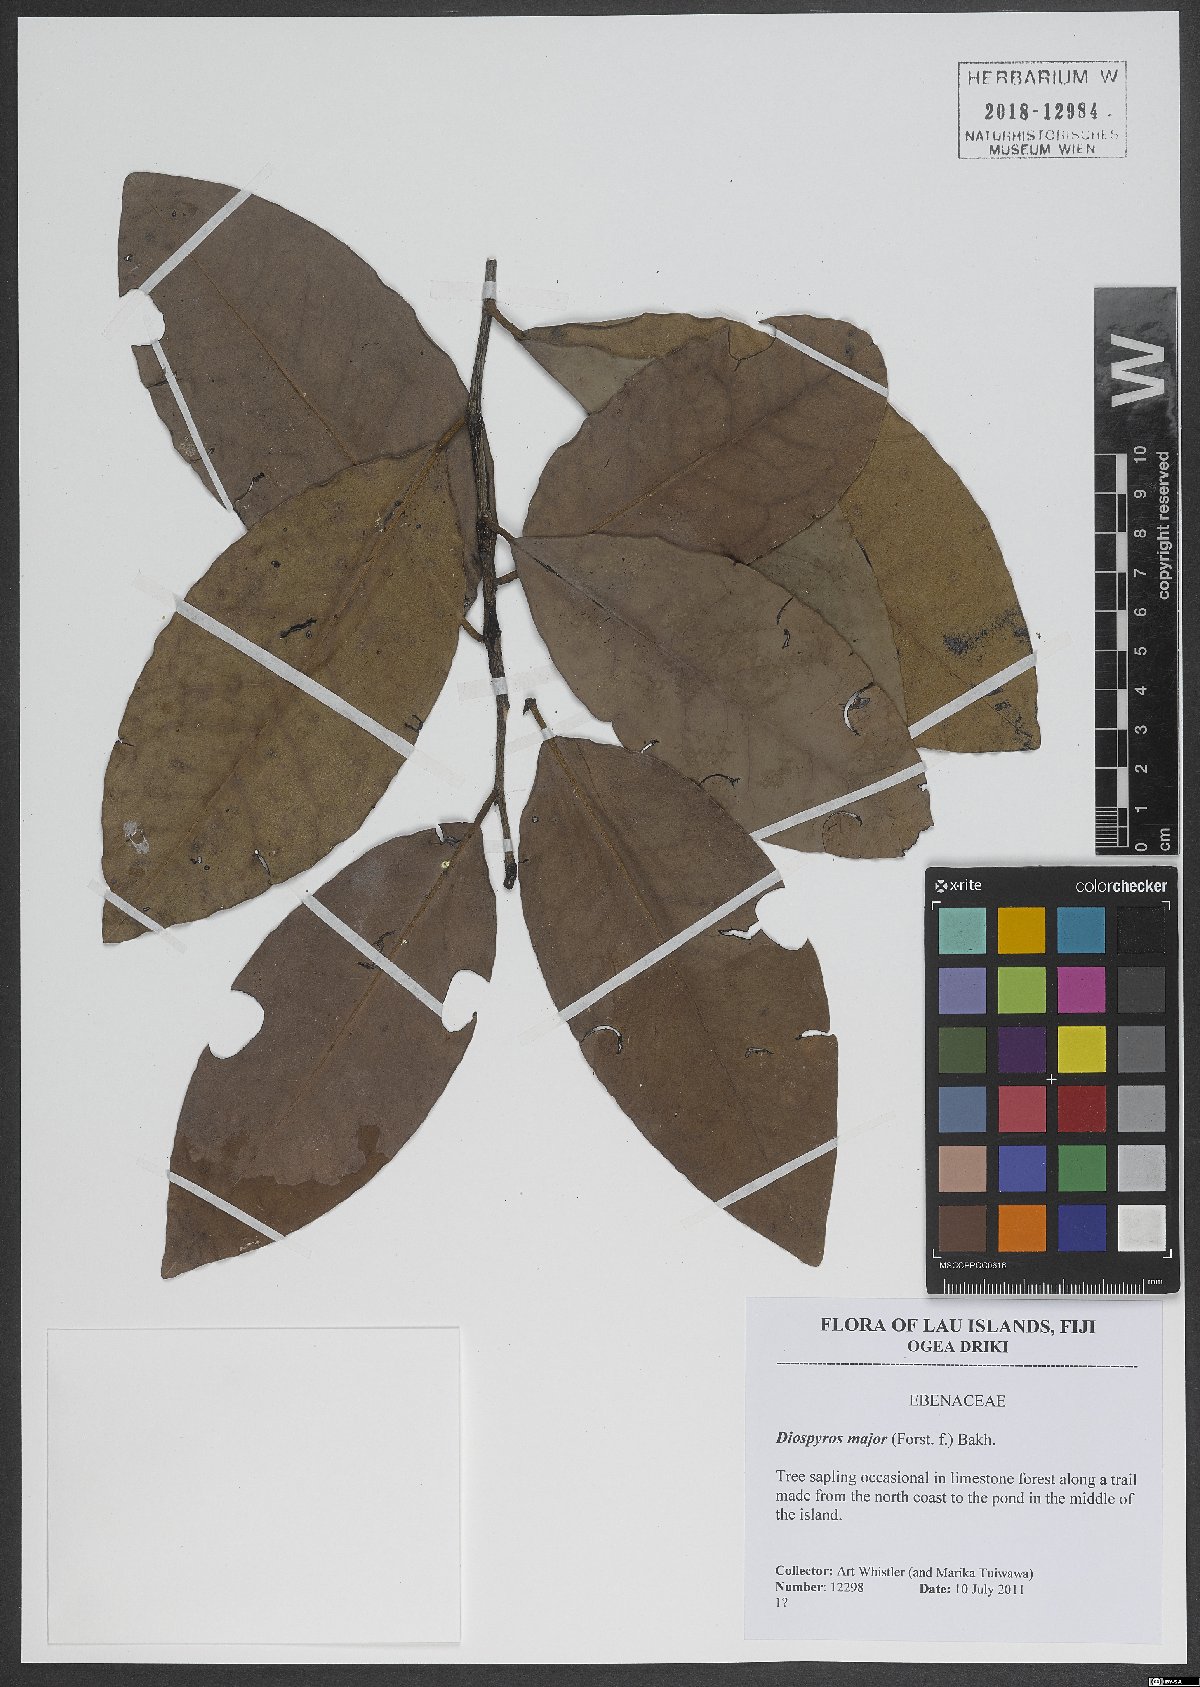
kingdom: Plantae
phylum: Tracheophyta
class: Magnoliopsida
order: Ericales
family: Ebenaceae
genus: Diospyros
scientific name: Diospyros major
